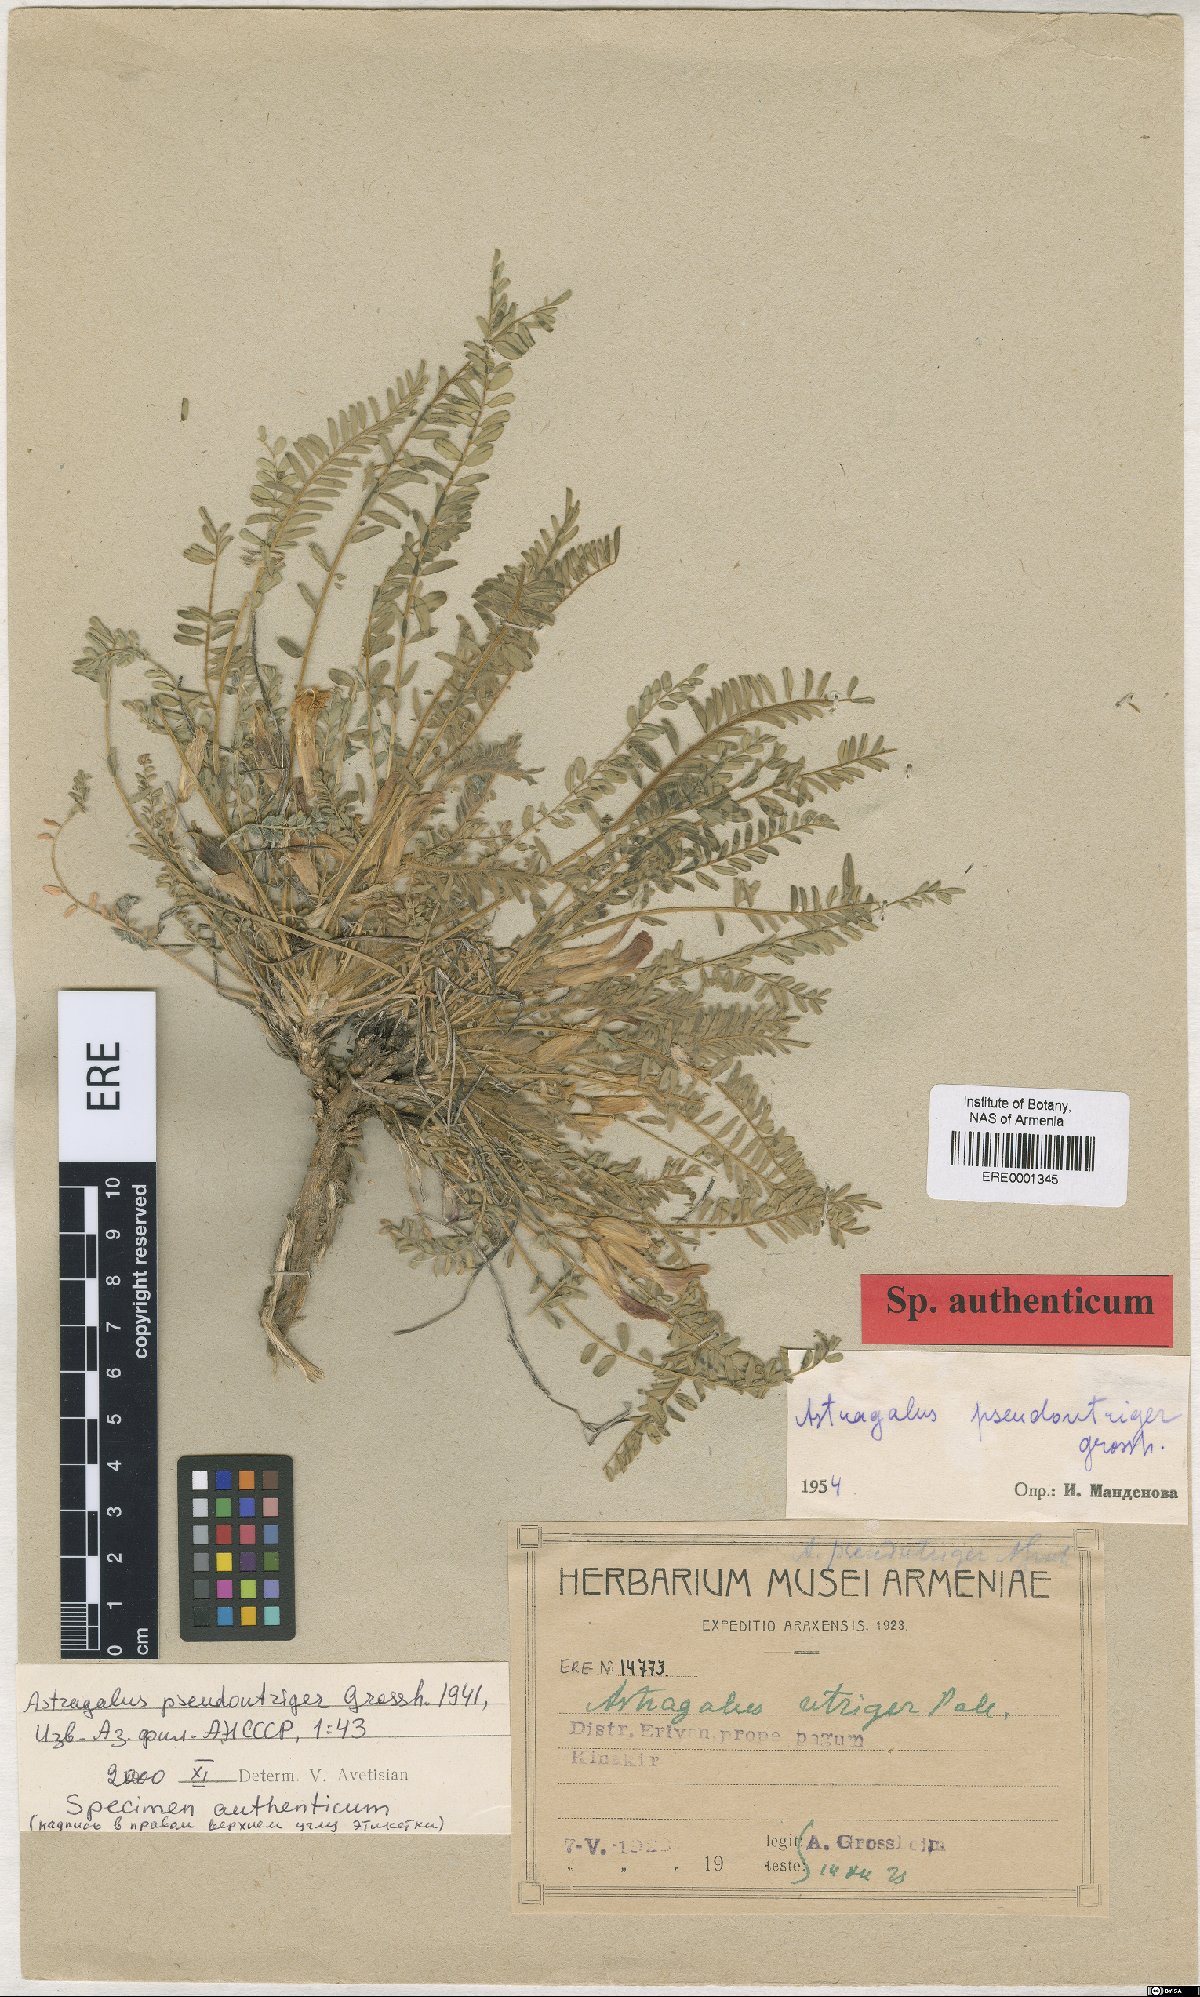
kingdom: Plantae
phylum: Tracheophyta
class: Magnoliopsida
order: Fabales
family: Fabaceae
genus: Astragalus
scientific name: Astragalus pseudoutriger
